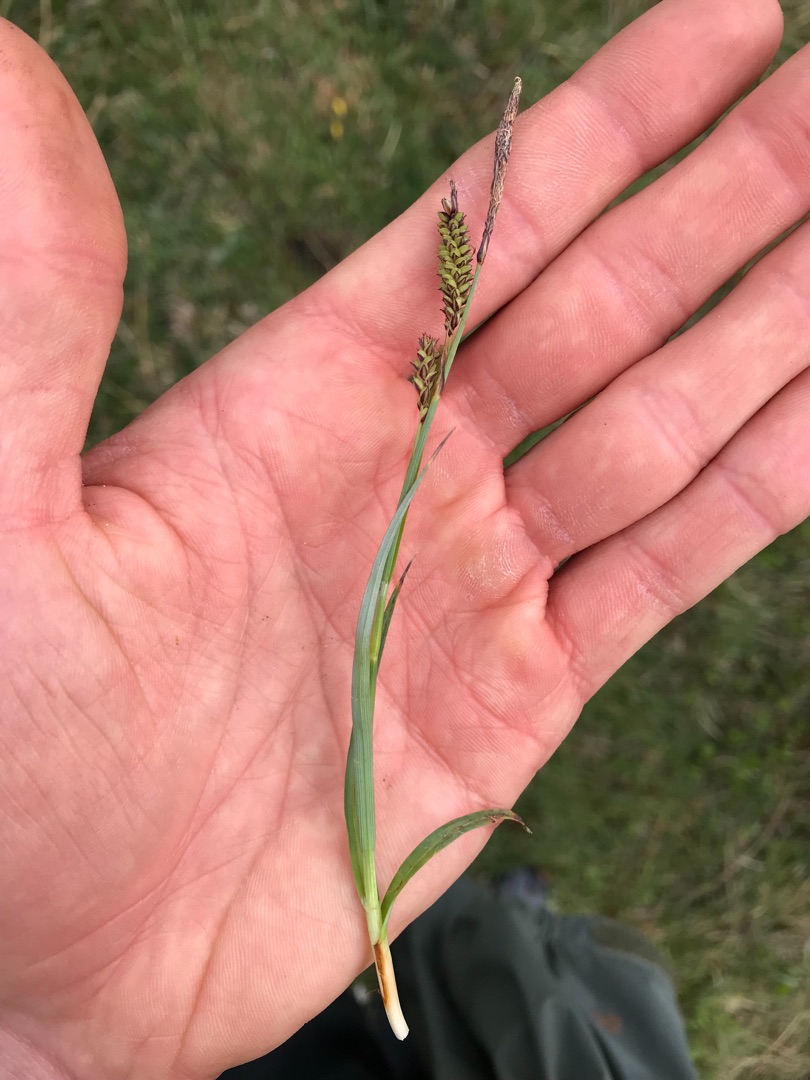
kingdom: Plantae
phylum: Tracheophyta
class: Liliopsida
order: Poales
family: Cyperaceae
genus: Carex
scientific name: Carex flacca
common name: Blågrøn star
